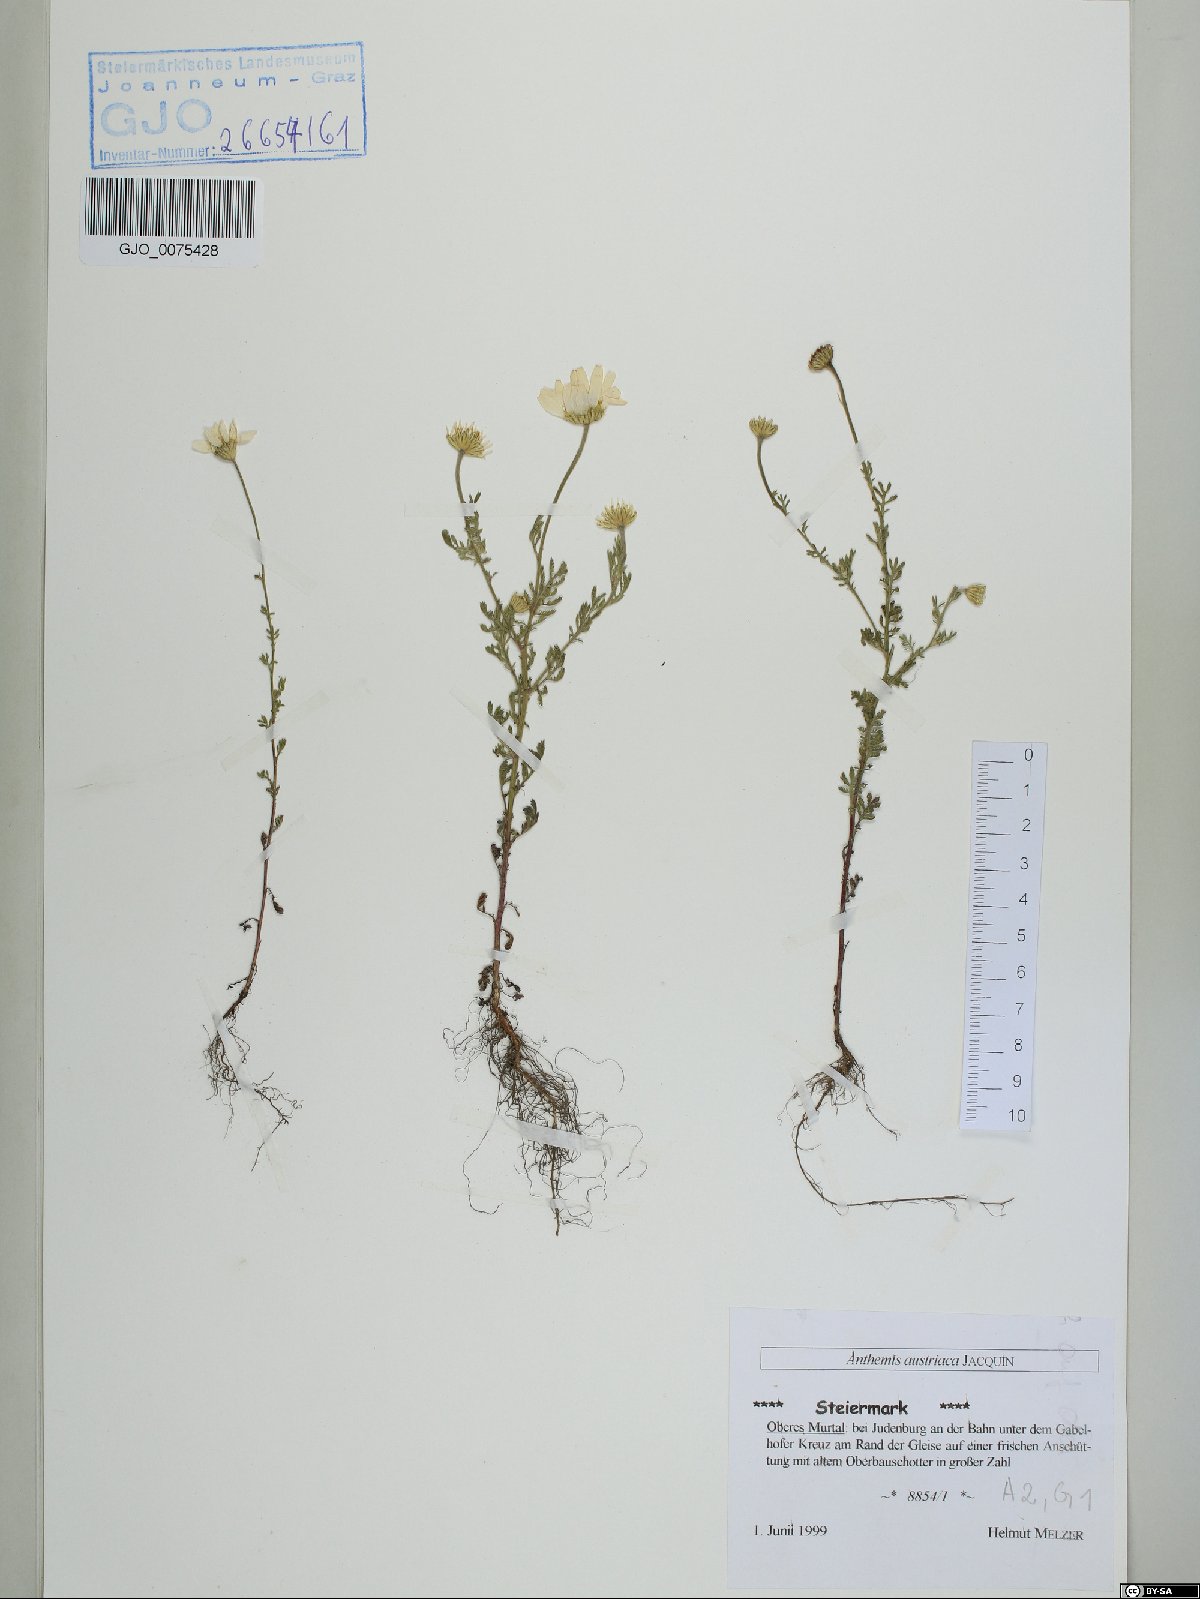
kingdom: Plantae
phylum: Tracheophyta
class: Magnoliopsida
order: Asterales
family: Asteraceae
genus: Cota
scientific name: Cota austriaca
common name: Austrian chamomile
